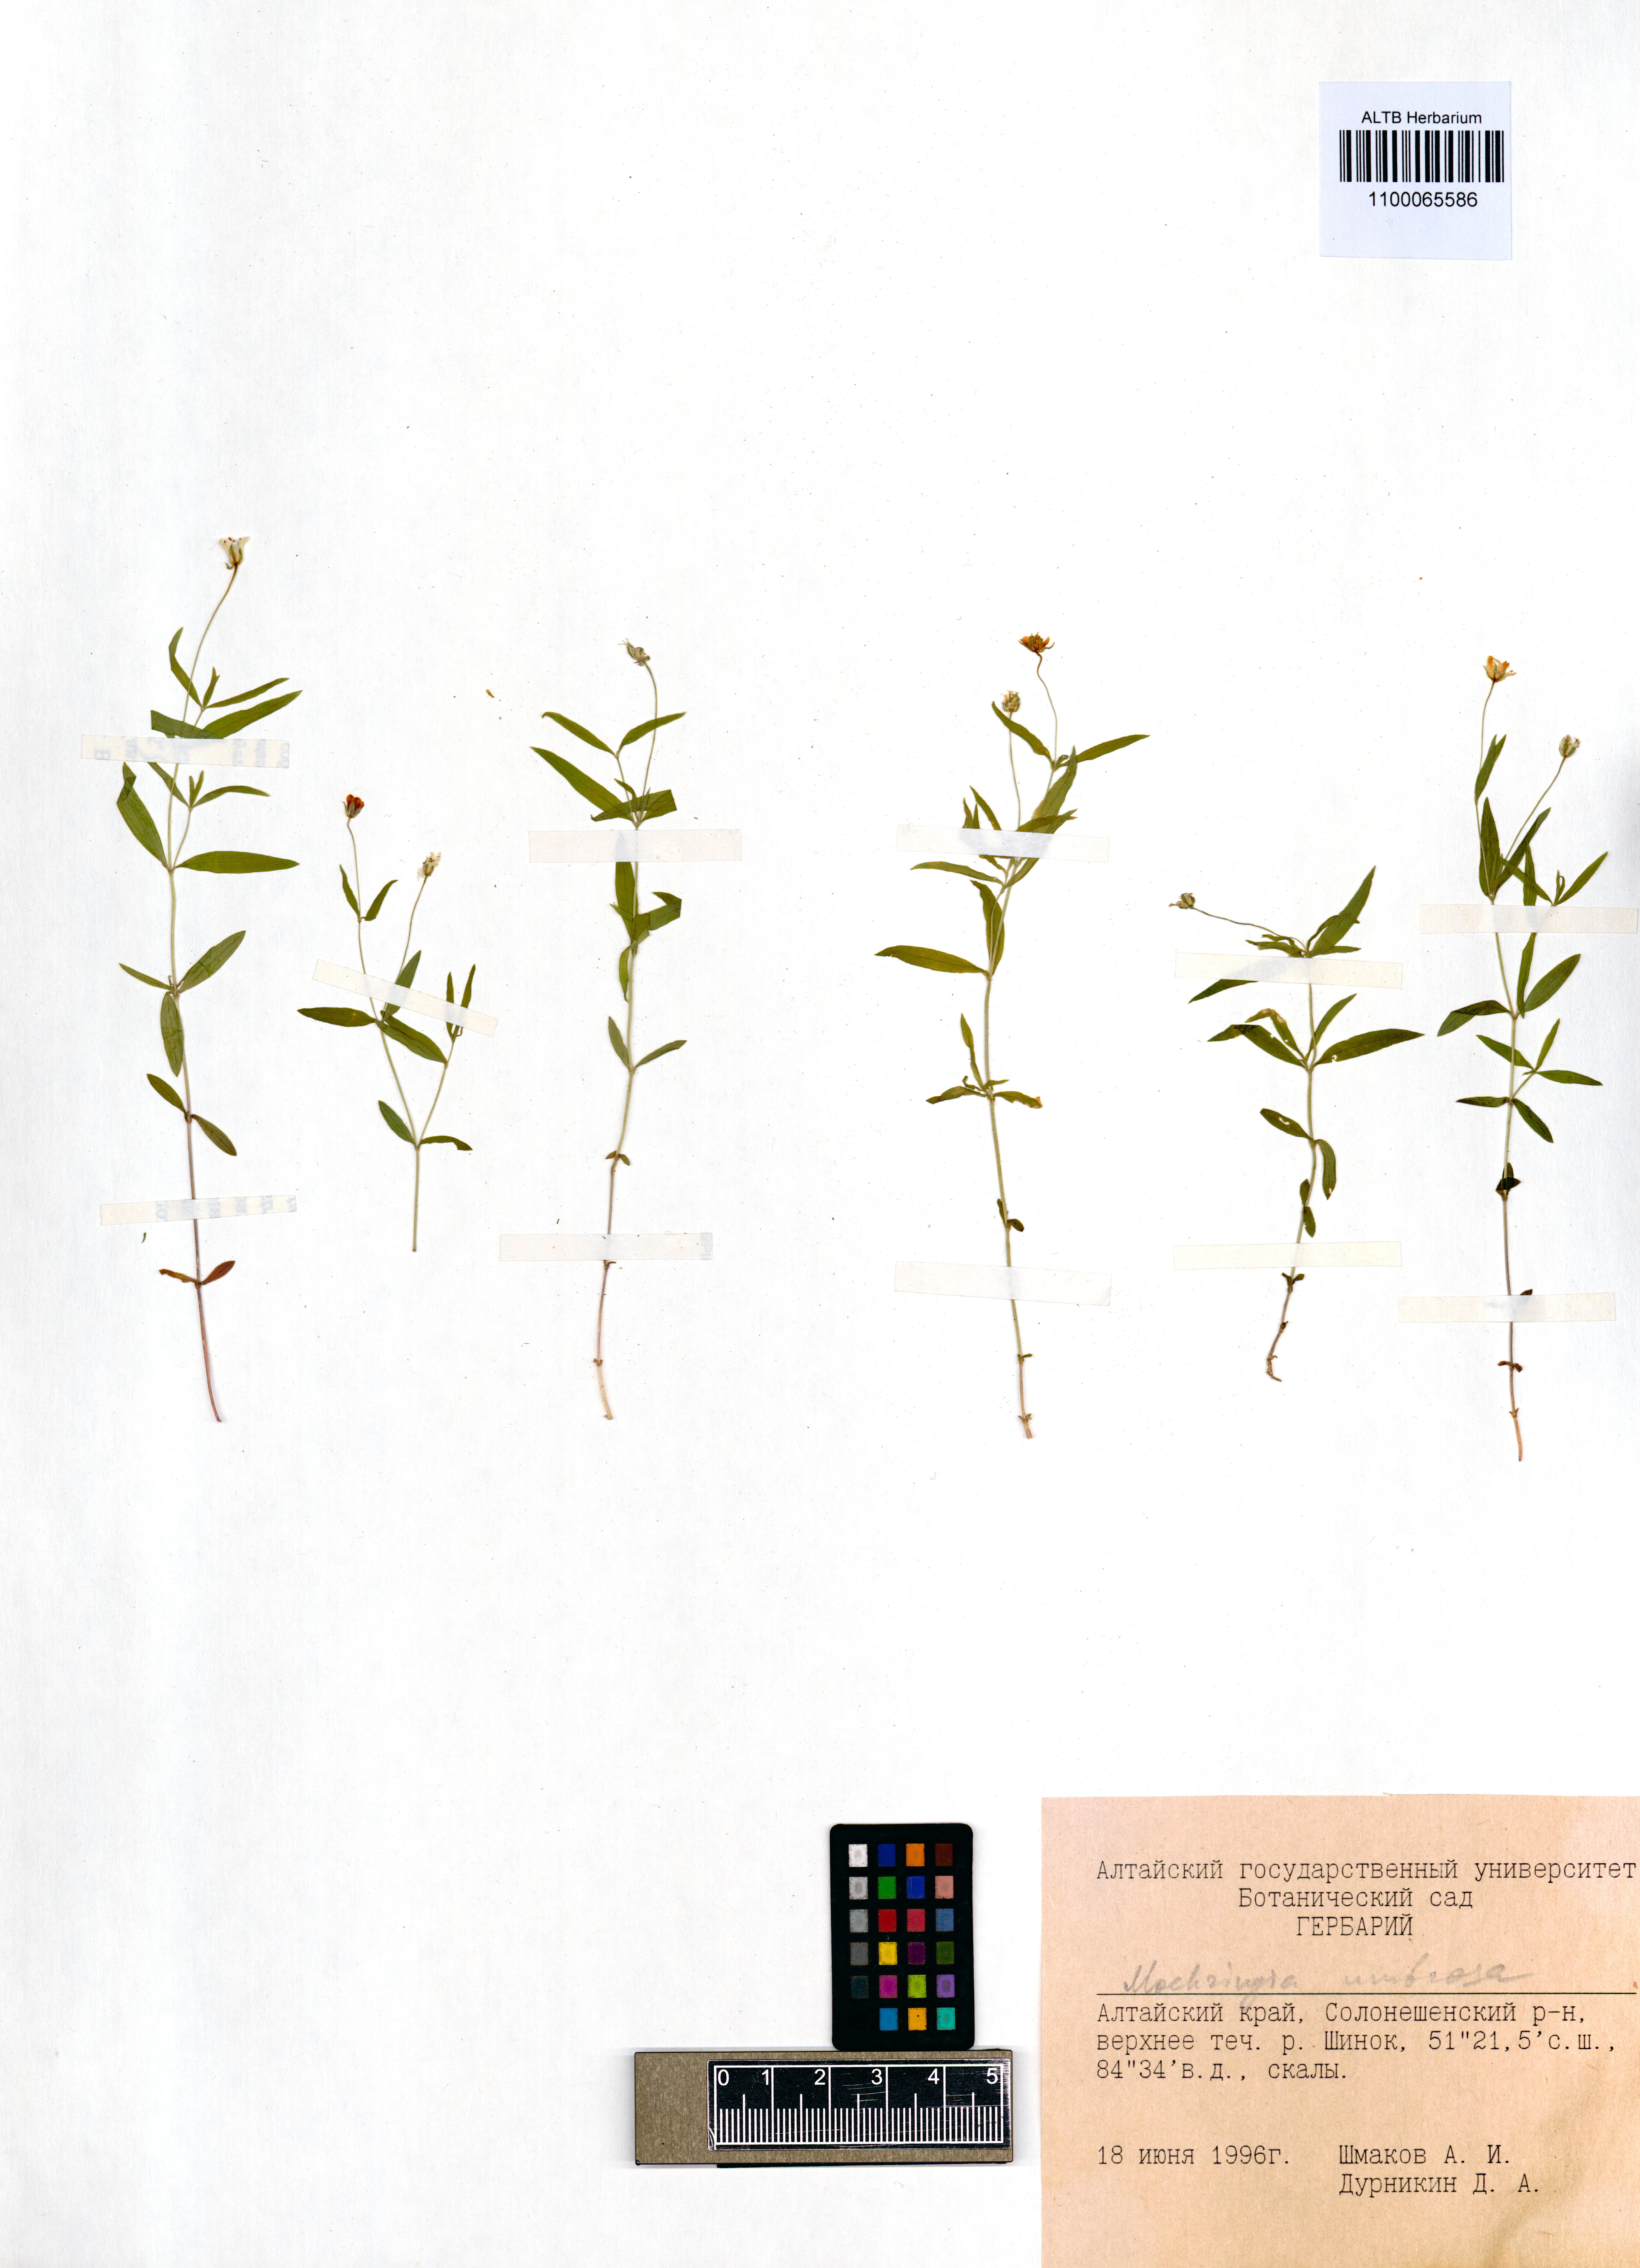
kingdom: Plantae
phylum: Tracheophyta
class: Magnoliopsida
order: Caryophyllales
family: Caryophyllaceae
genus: Moehringia
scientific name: Moehringia umbrosa
